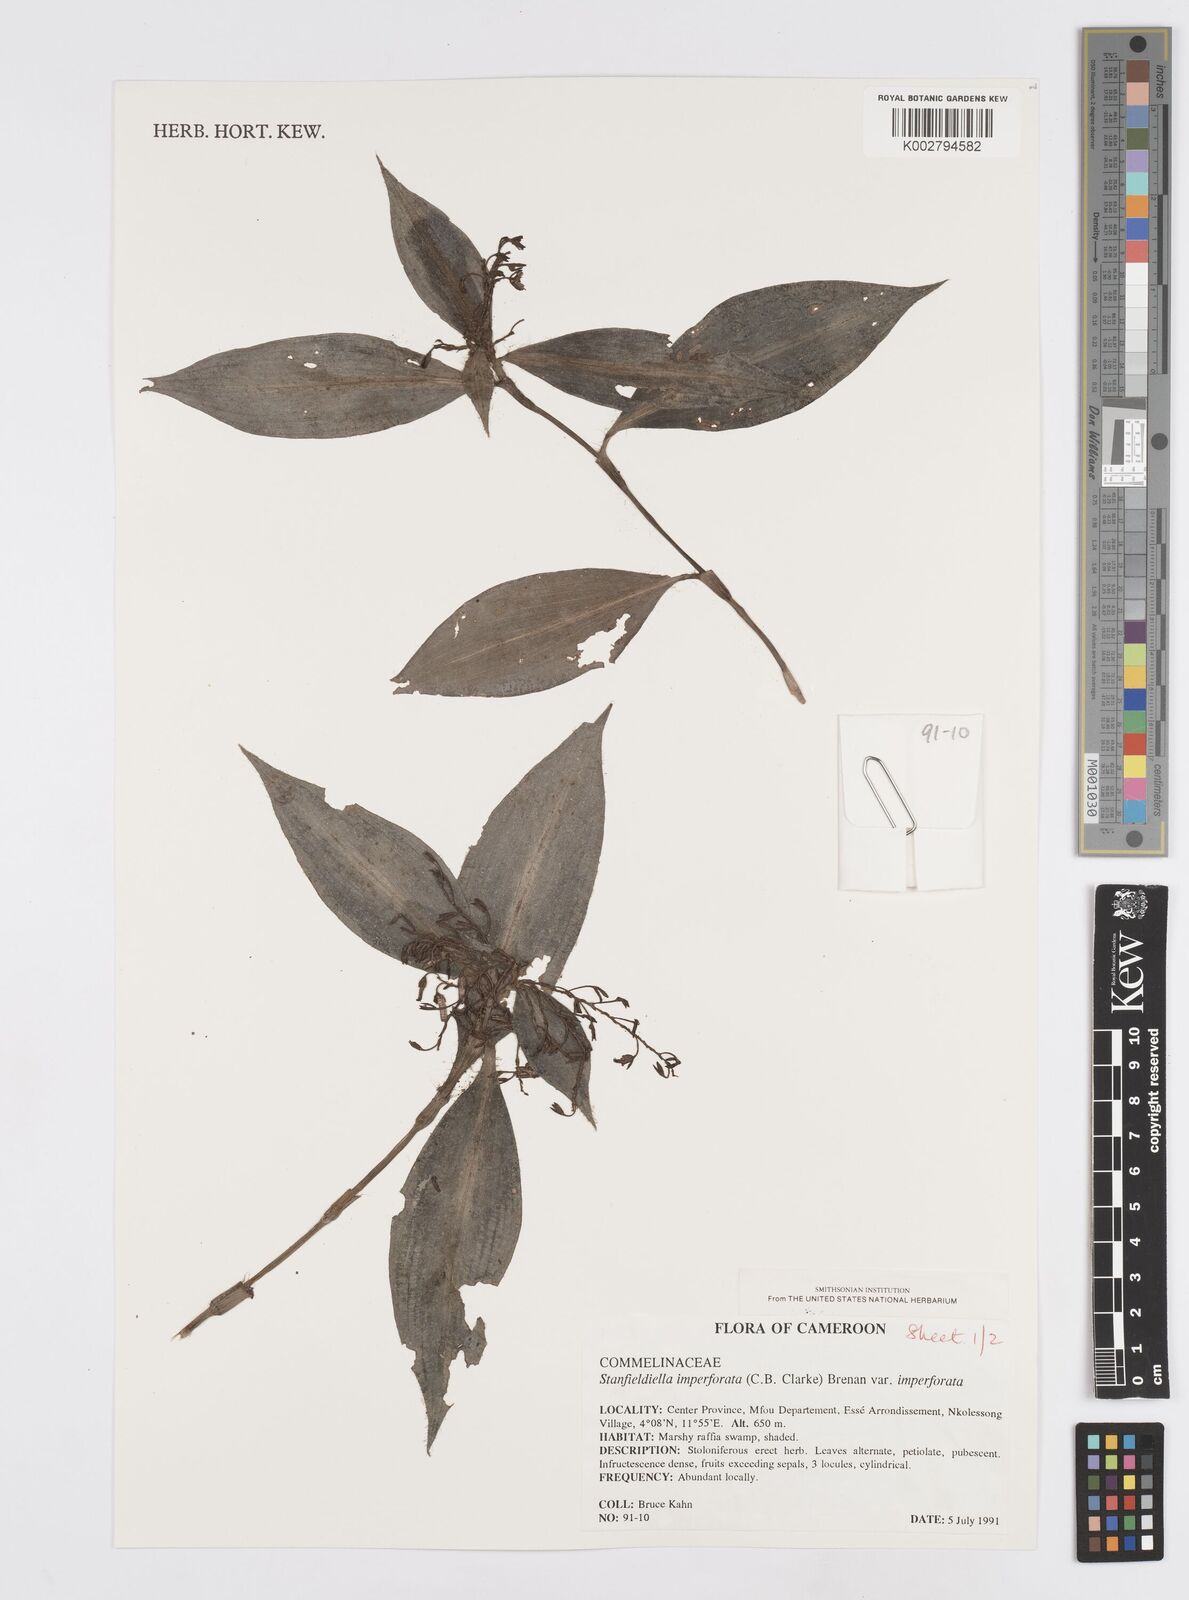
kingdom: Plantae
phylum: Tracheophyta
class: Liliopsida
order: Commelinales
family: Commelinaceae
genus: Stanfieldiella
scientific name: Stanfieldiella imperforata
